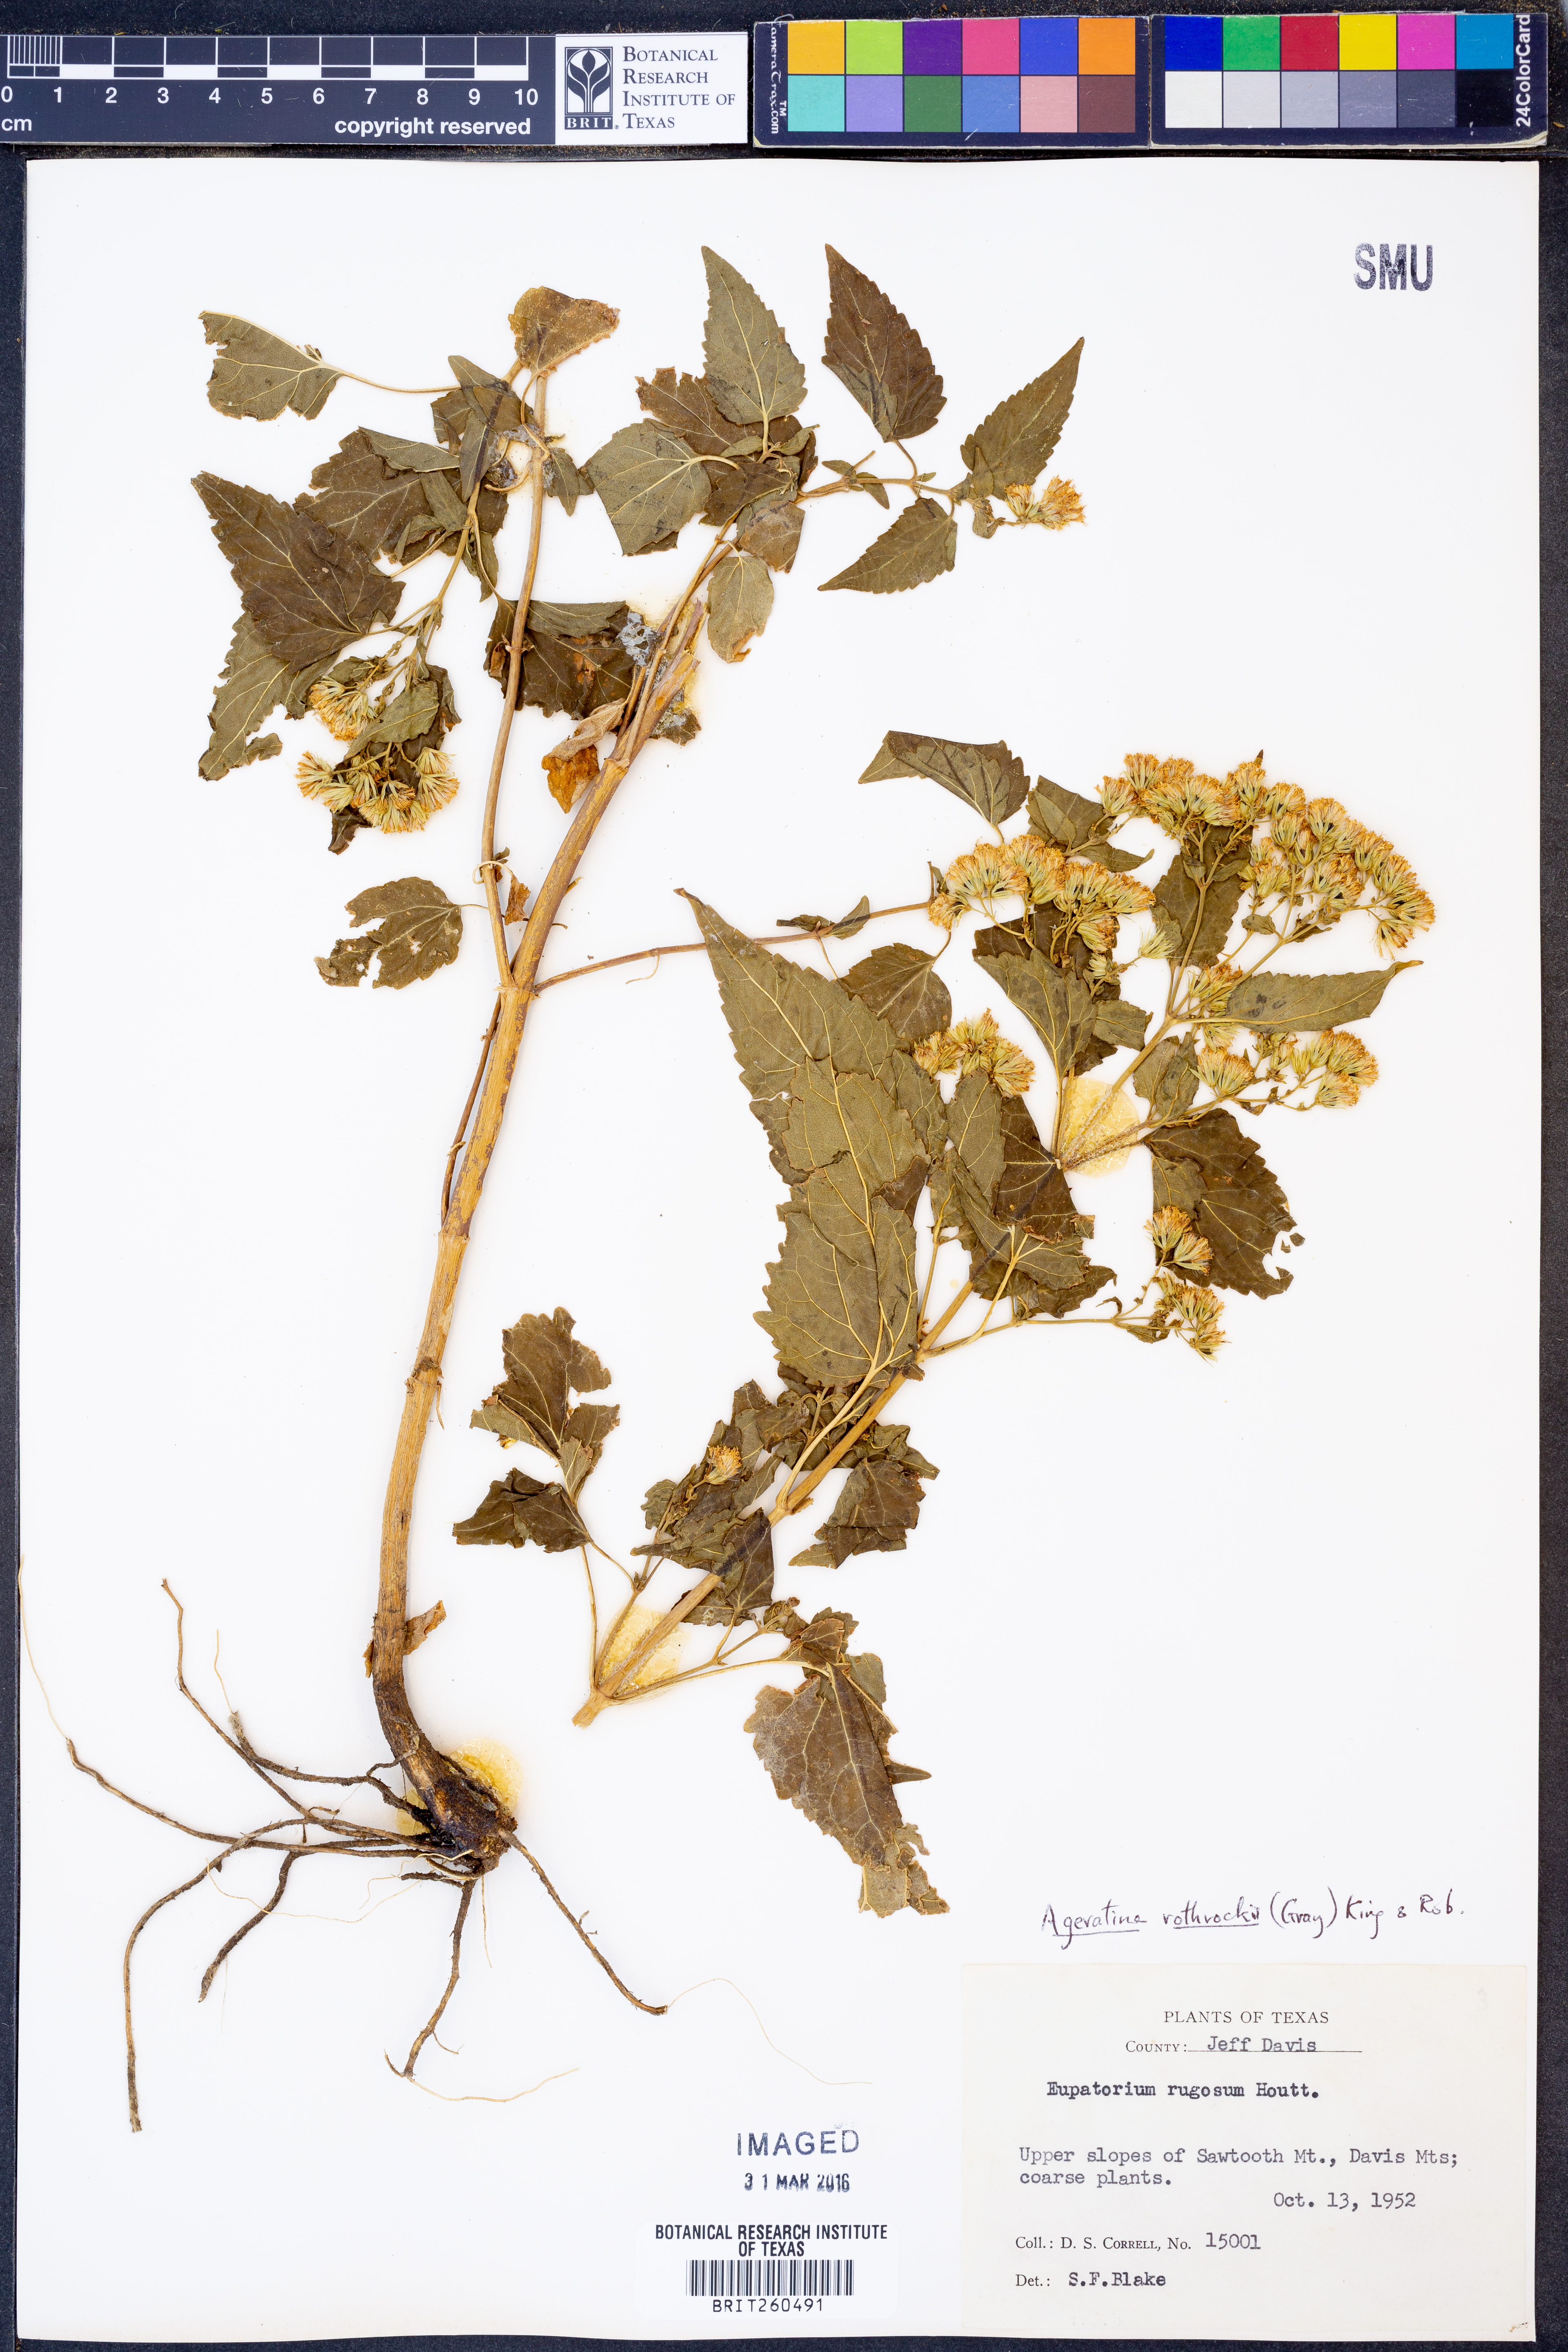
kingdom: Plantae
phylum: Tracheophyta
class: Magnoliopsida
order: Asterales
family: Asteraceae
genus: Ageratina
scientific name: Ageratina rothrockii
